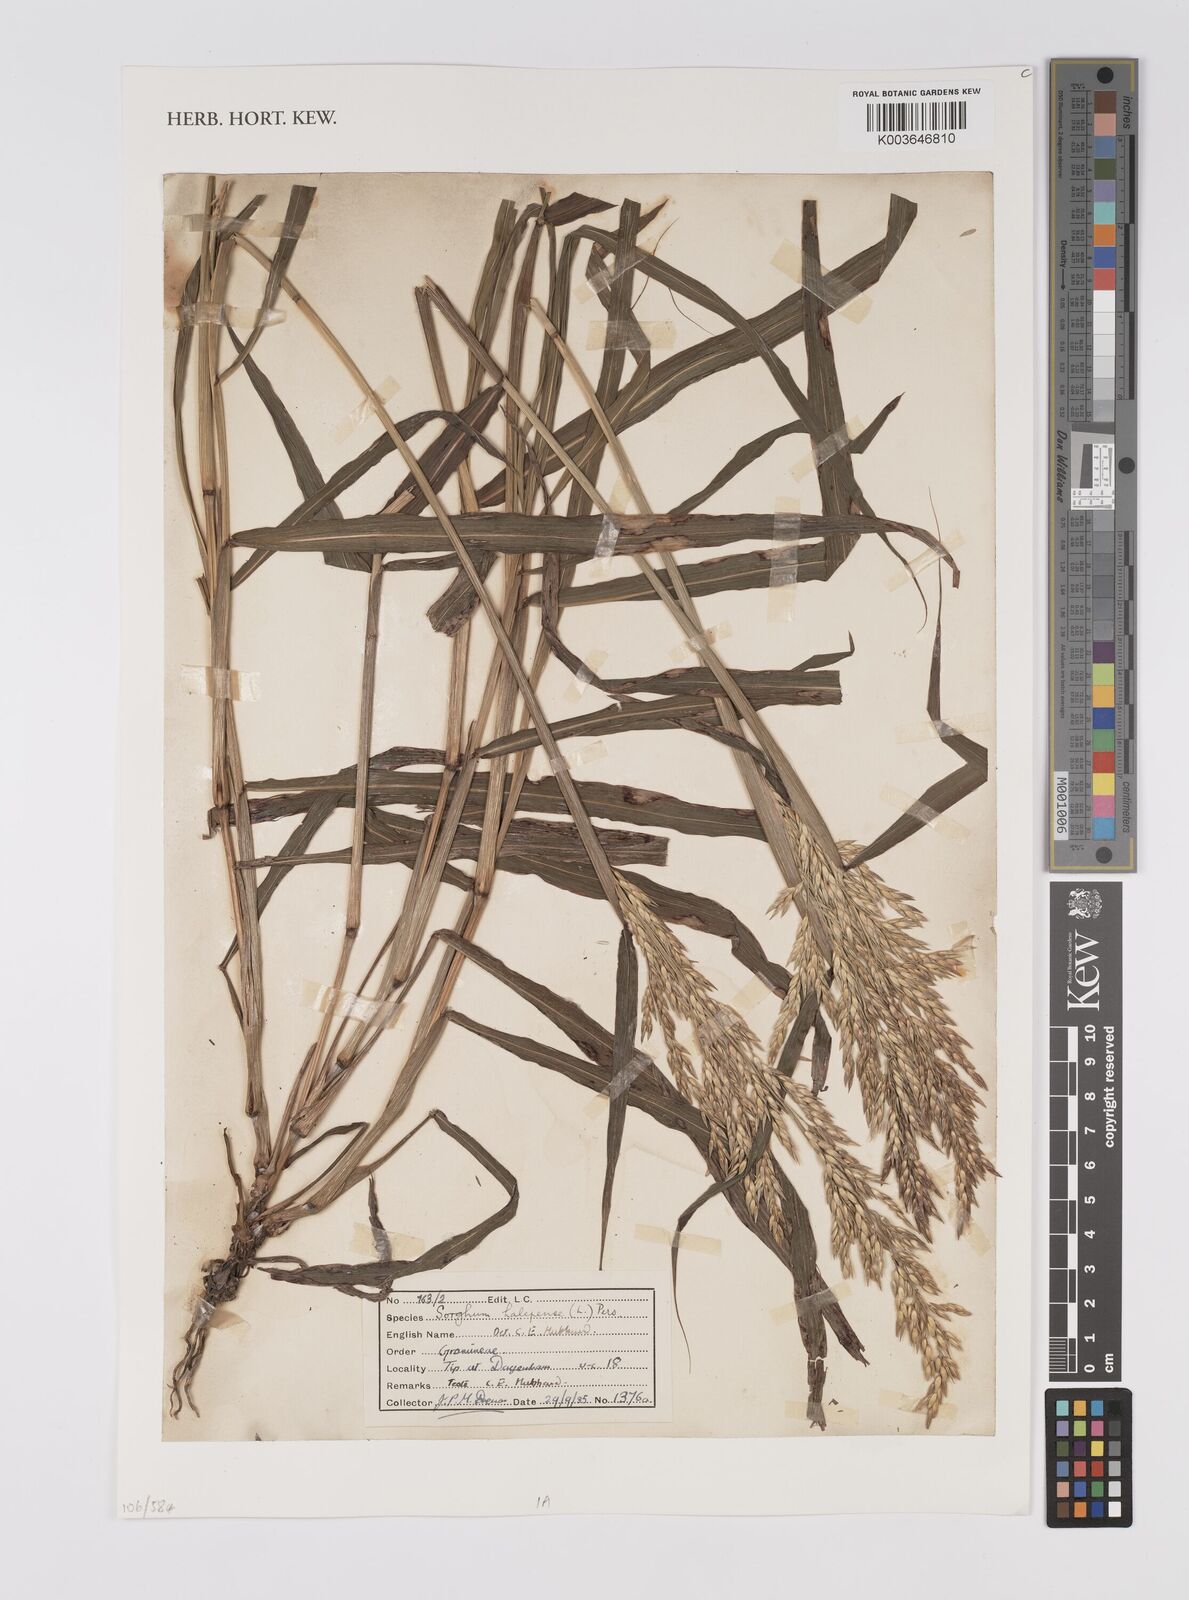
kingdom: Plantae
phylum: Tracheophyta
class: Liliopsida
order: Poales
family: Poaceae
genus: Sorghum
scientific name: Sorghum halepense
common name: Johnson-grass
